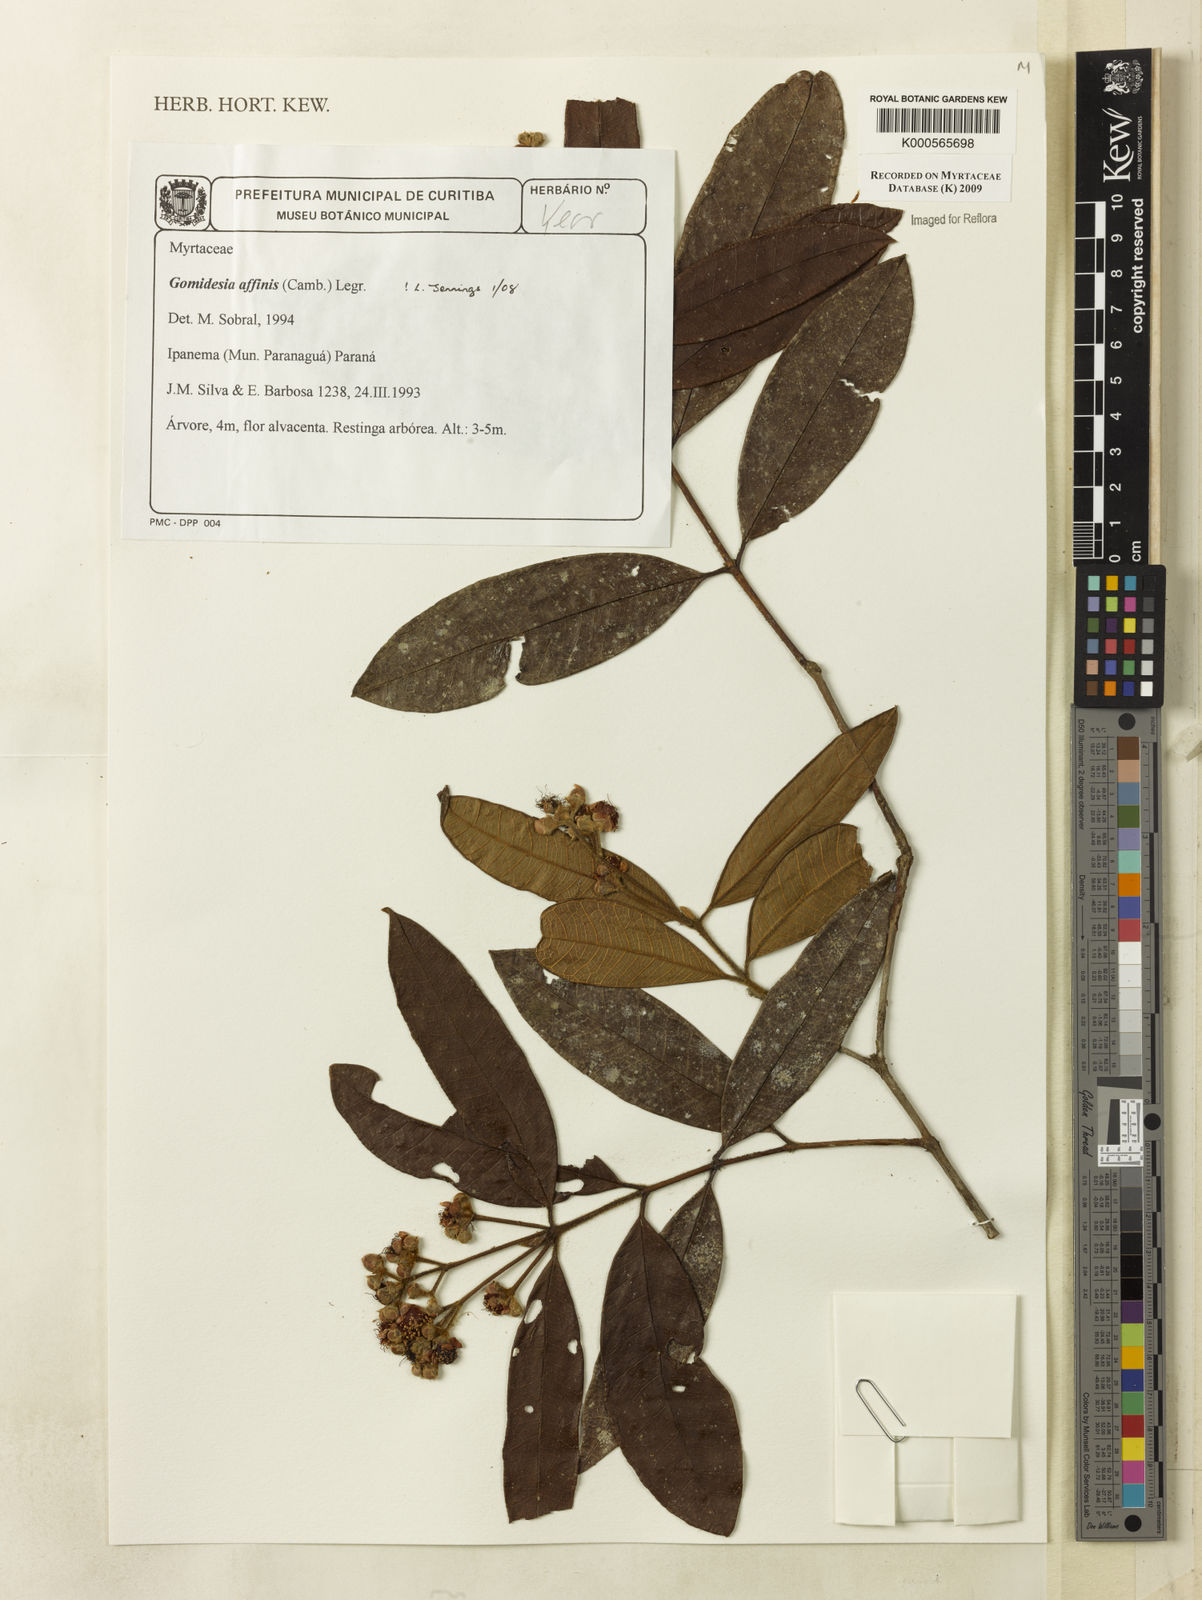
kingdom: Plantae
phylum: Tracheophyta
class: Magnoliopsida
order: Myrtales
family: Myrtaceae
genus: Myrcia
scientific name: Myrcia hebepetala
